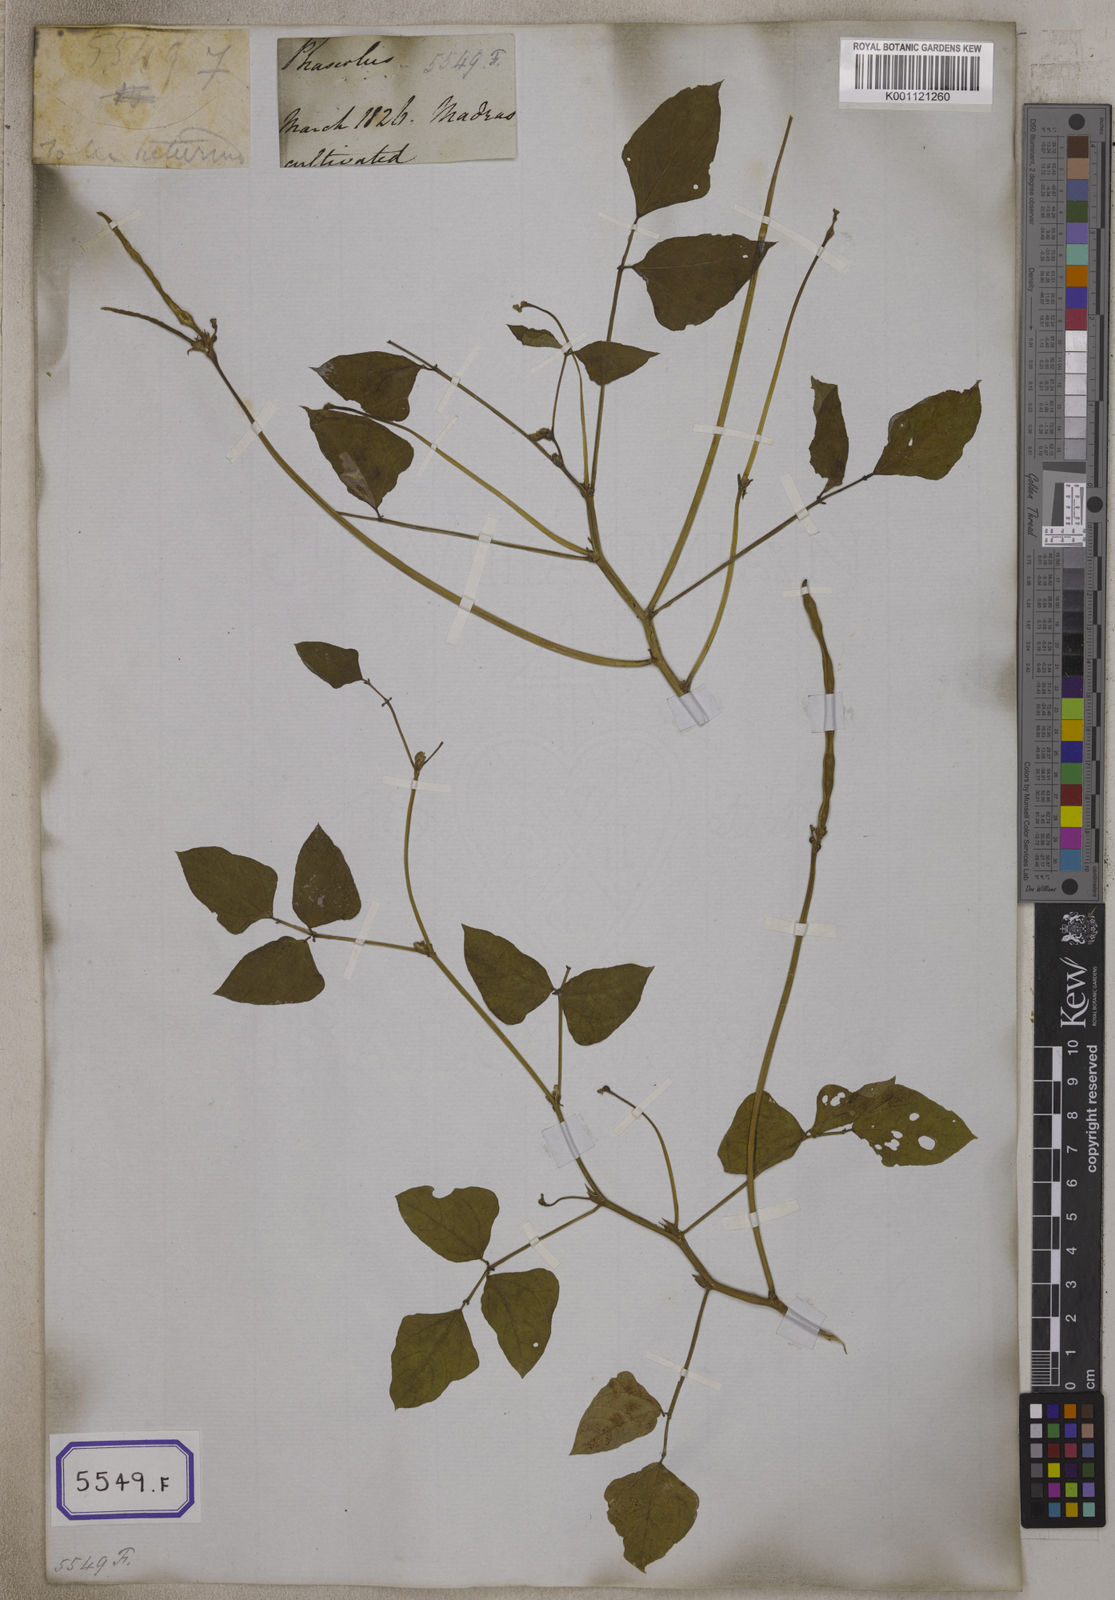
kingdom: Plantae
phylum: Tracheophyta
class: Magnoliopsida
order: Fabales
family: Fabaceae
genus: Vigna
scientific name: Vigna unguiculata
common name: Cowpea
